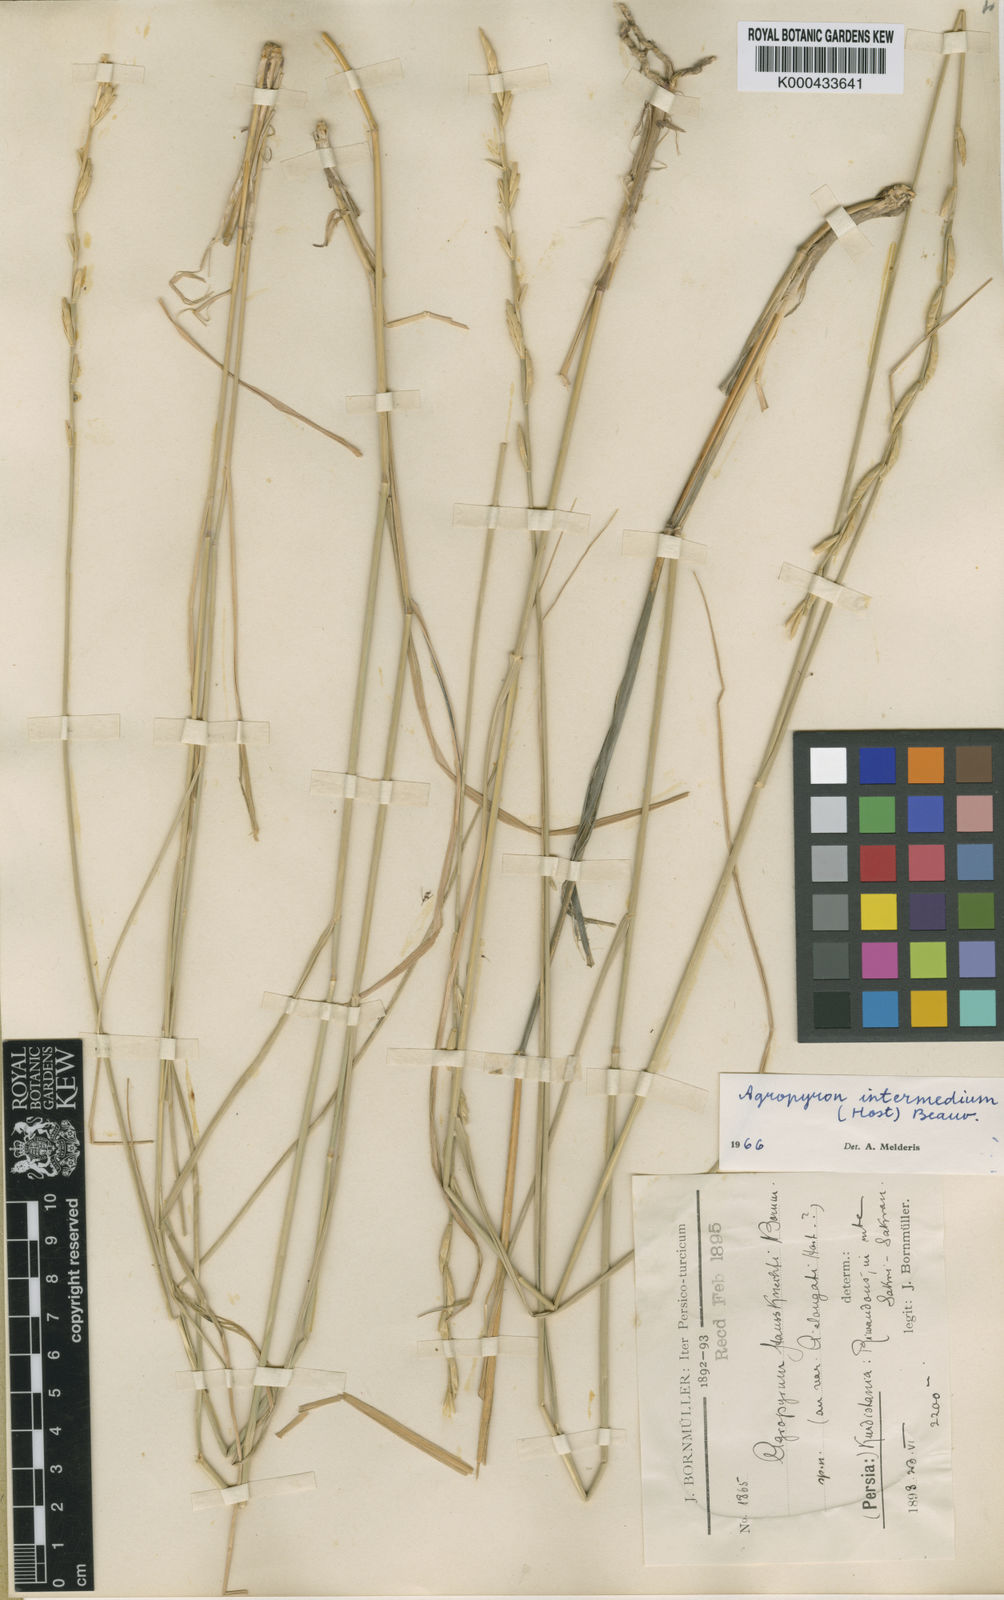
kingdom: Plantae
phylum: Tracheophyta
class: Liliopsida
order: Poales
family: Poaceae
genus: Thinopyrum
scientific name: Thinopyrum intermedium
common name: Intermediate wheatgrass
